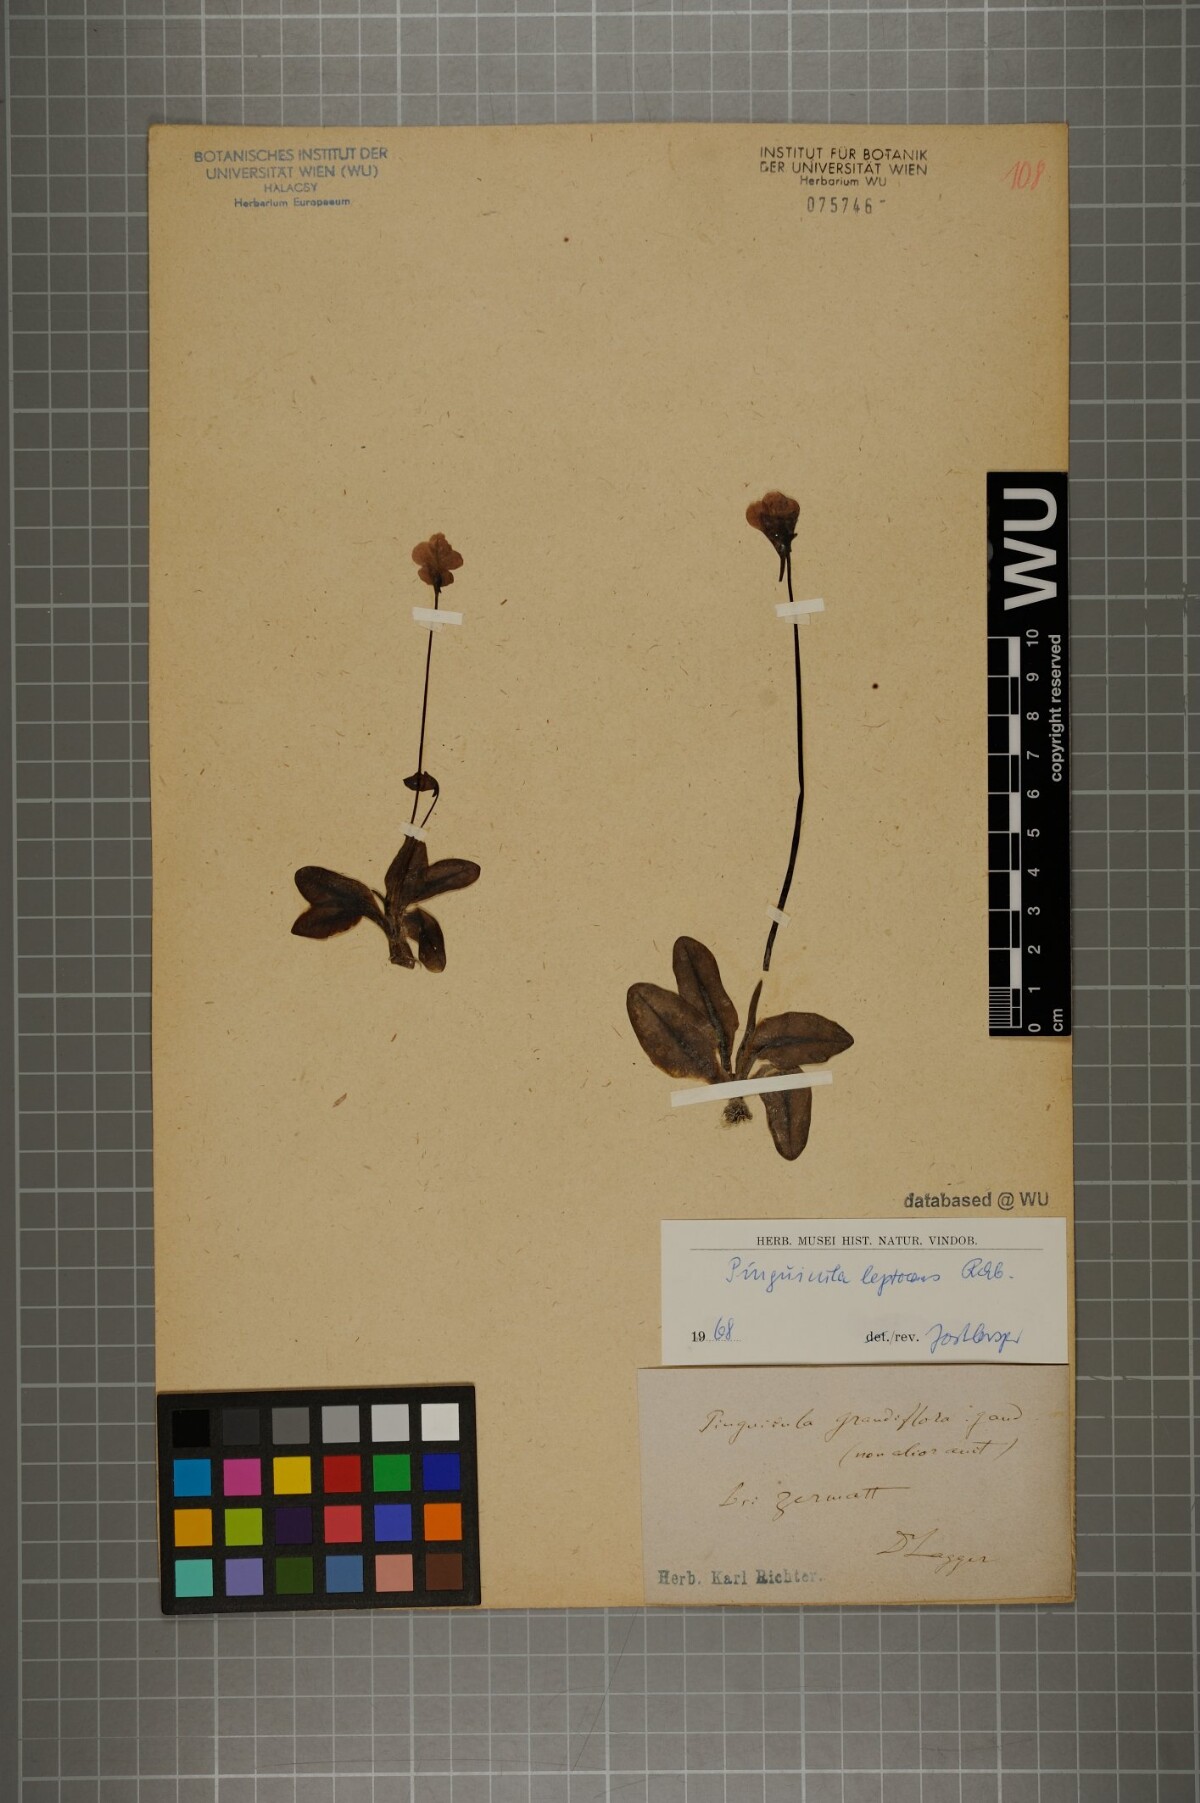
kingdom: Plantae
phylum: Tracheophyta
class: Magnoliopsida
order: Lamiales
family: Lentibulariaceae
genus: Pinguicula
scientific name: Pinguicula leptoceras
